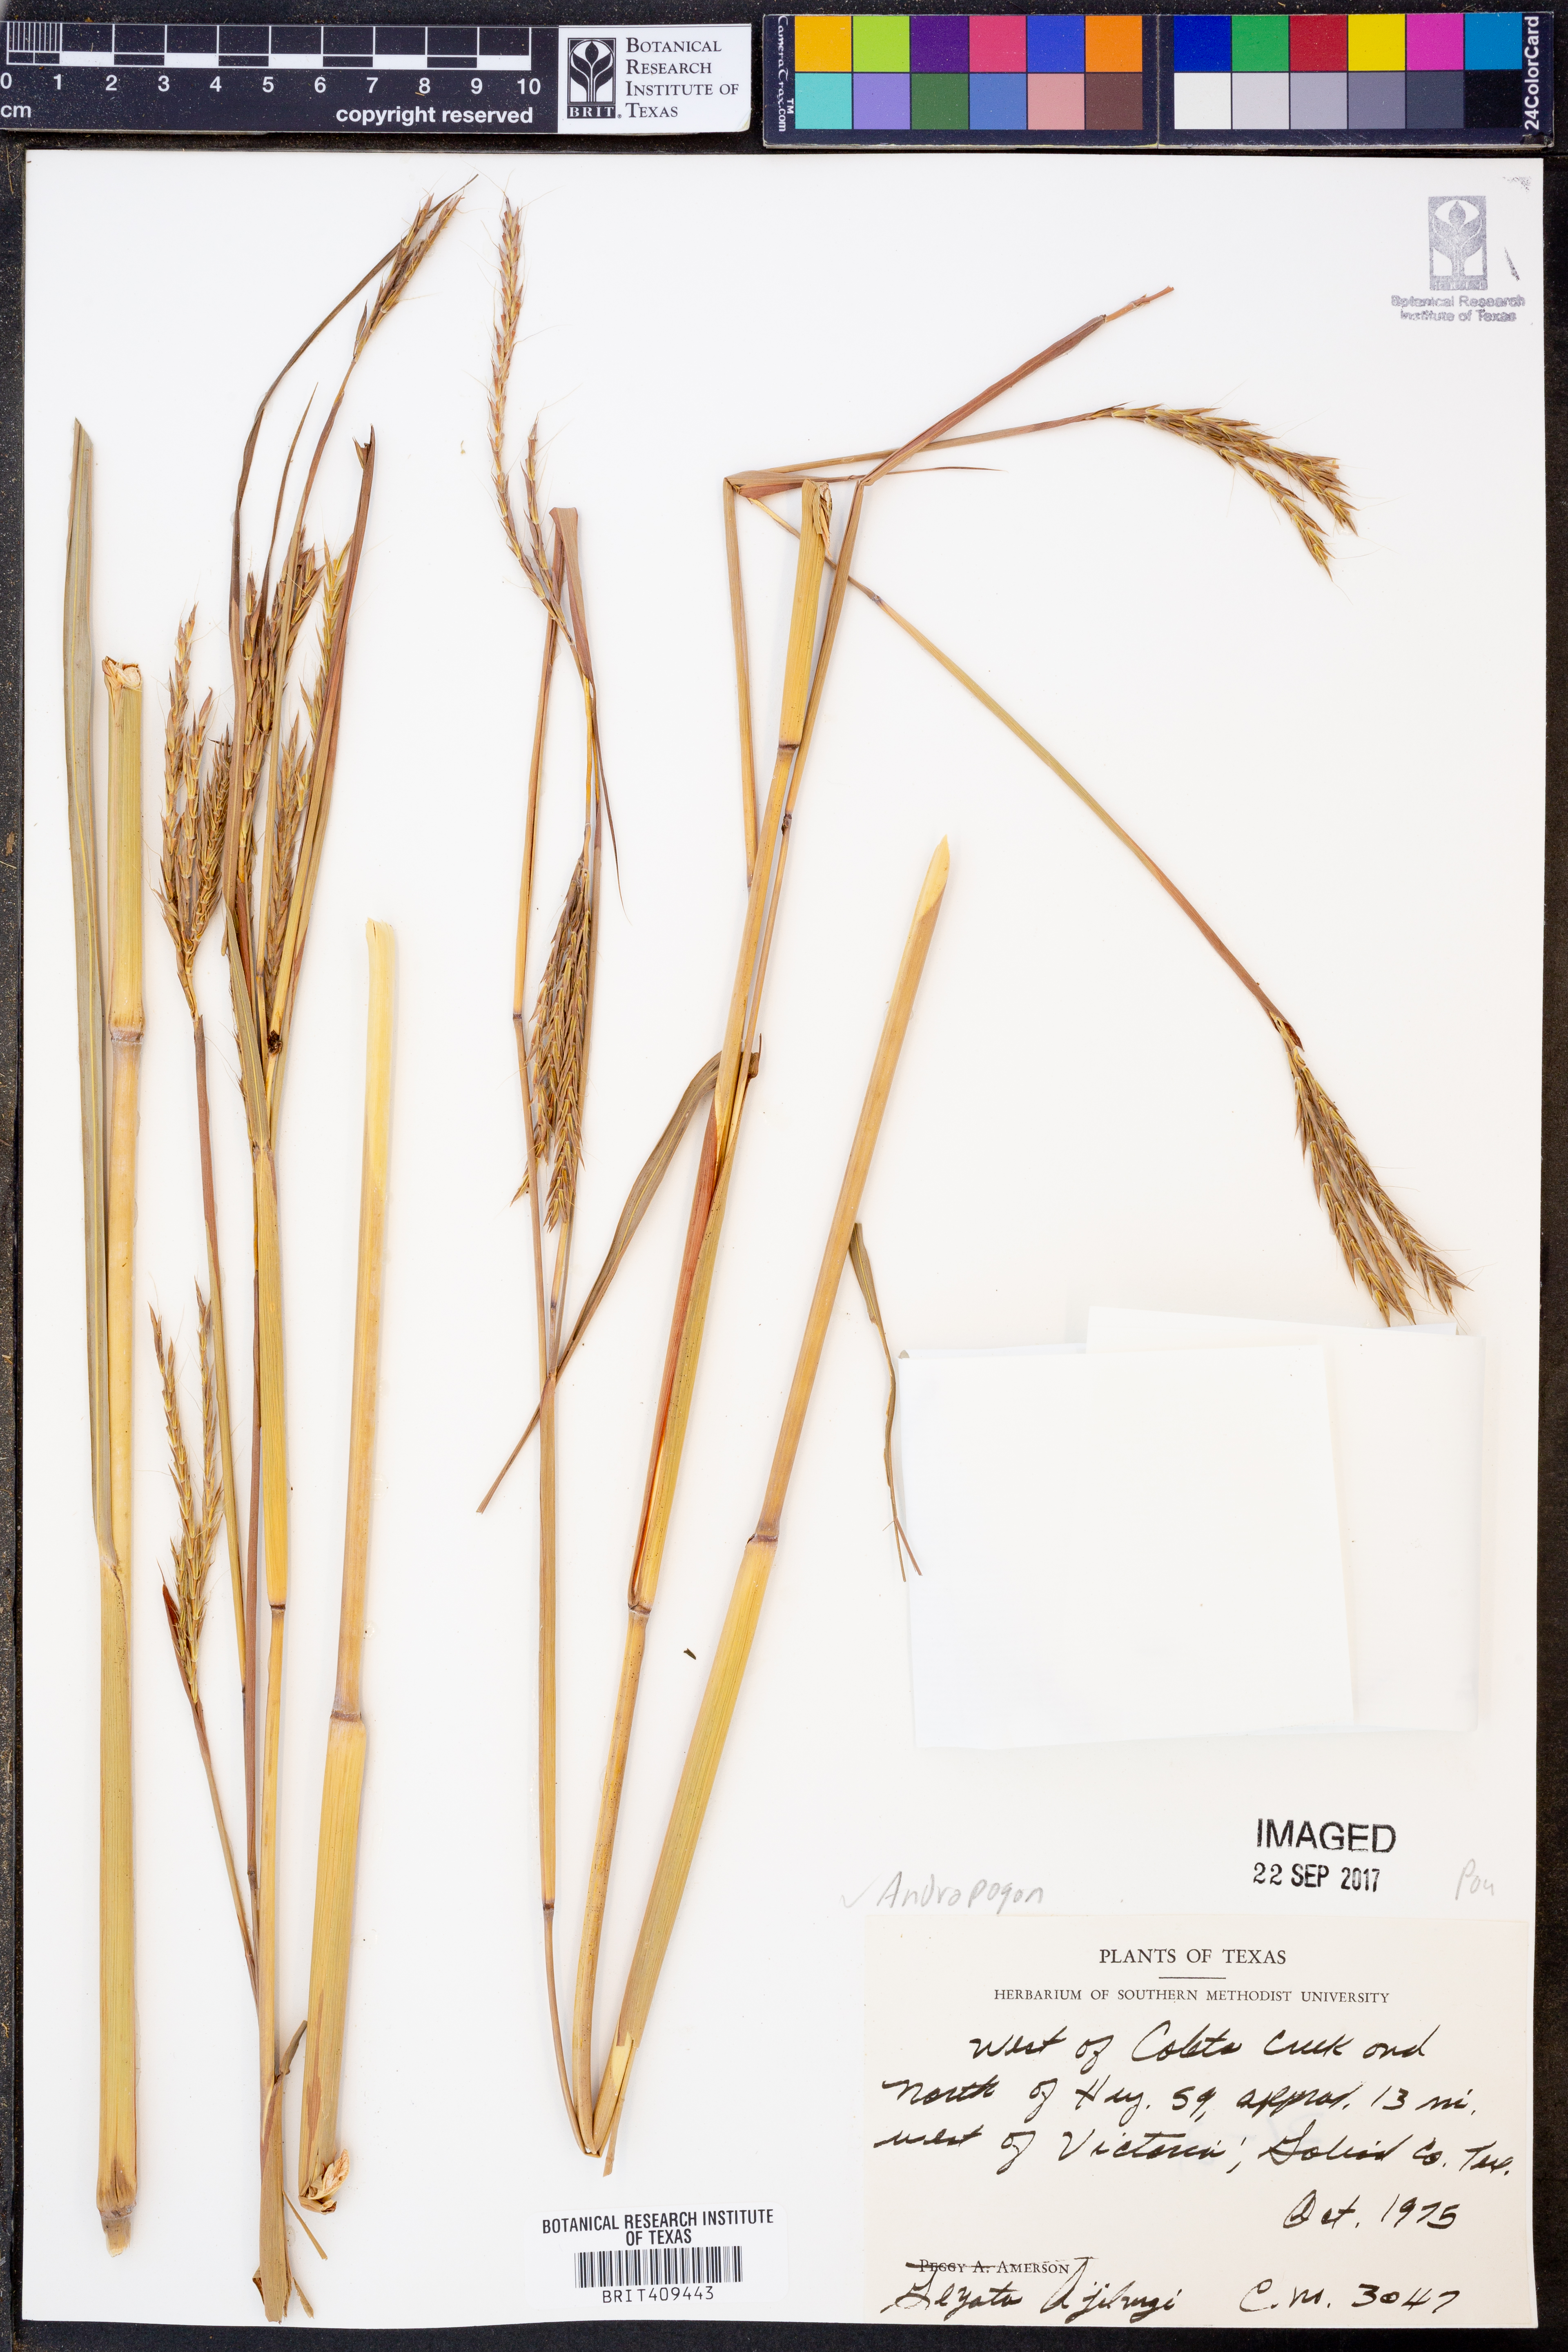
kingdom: Plantae
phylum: Tracheophyta
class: Liliopsida
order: Poales
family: Poaceae
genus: Andropogon
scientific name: Andropogon
